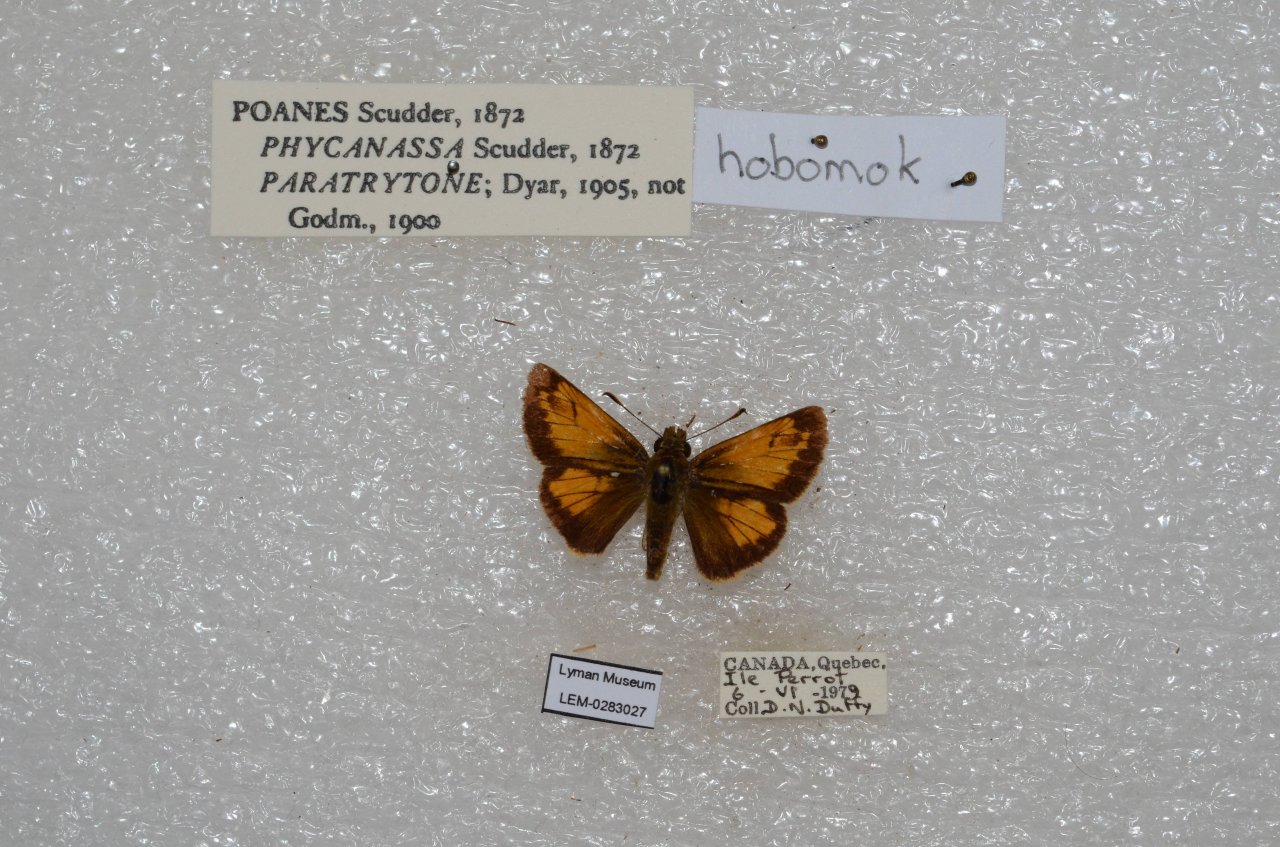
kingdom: Animalia
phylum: Arthropoda
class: Insecta
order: Lepidoptera
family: Hesperiidae
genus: Lon
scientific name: Lon hobomok
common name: Hobomok Skipper
